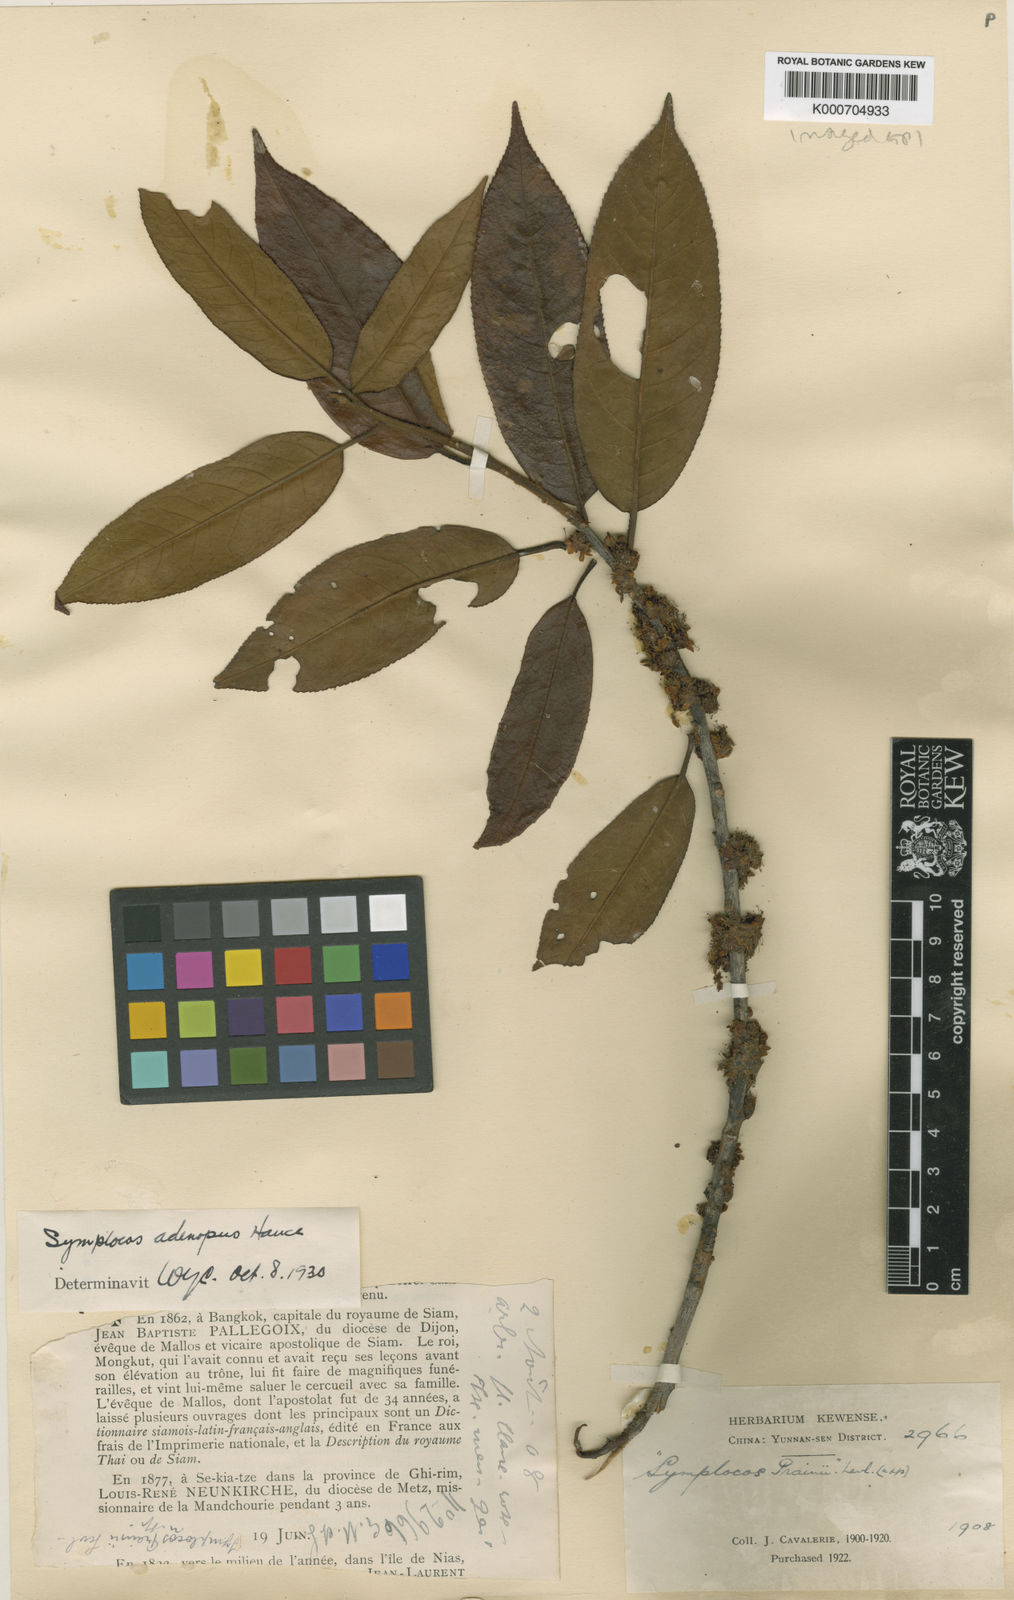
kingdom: Plantae
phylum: Tracheophyta
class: Magnoliopsida
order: Ericales
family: Symplocaceae
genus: Symplocos
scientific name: Symplocos glomerata
